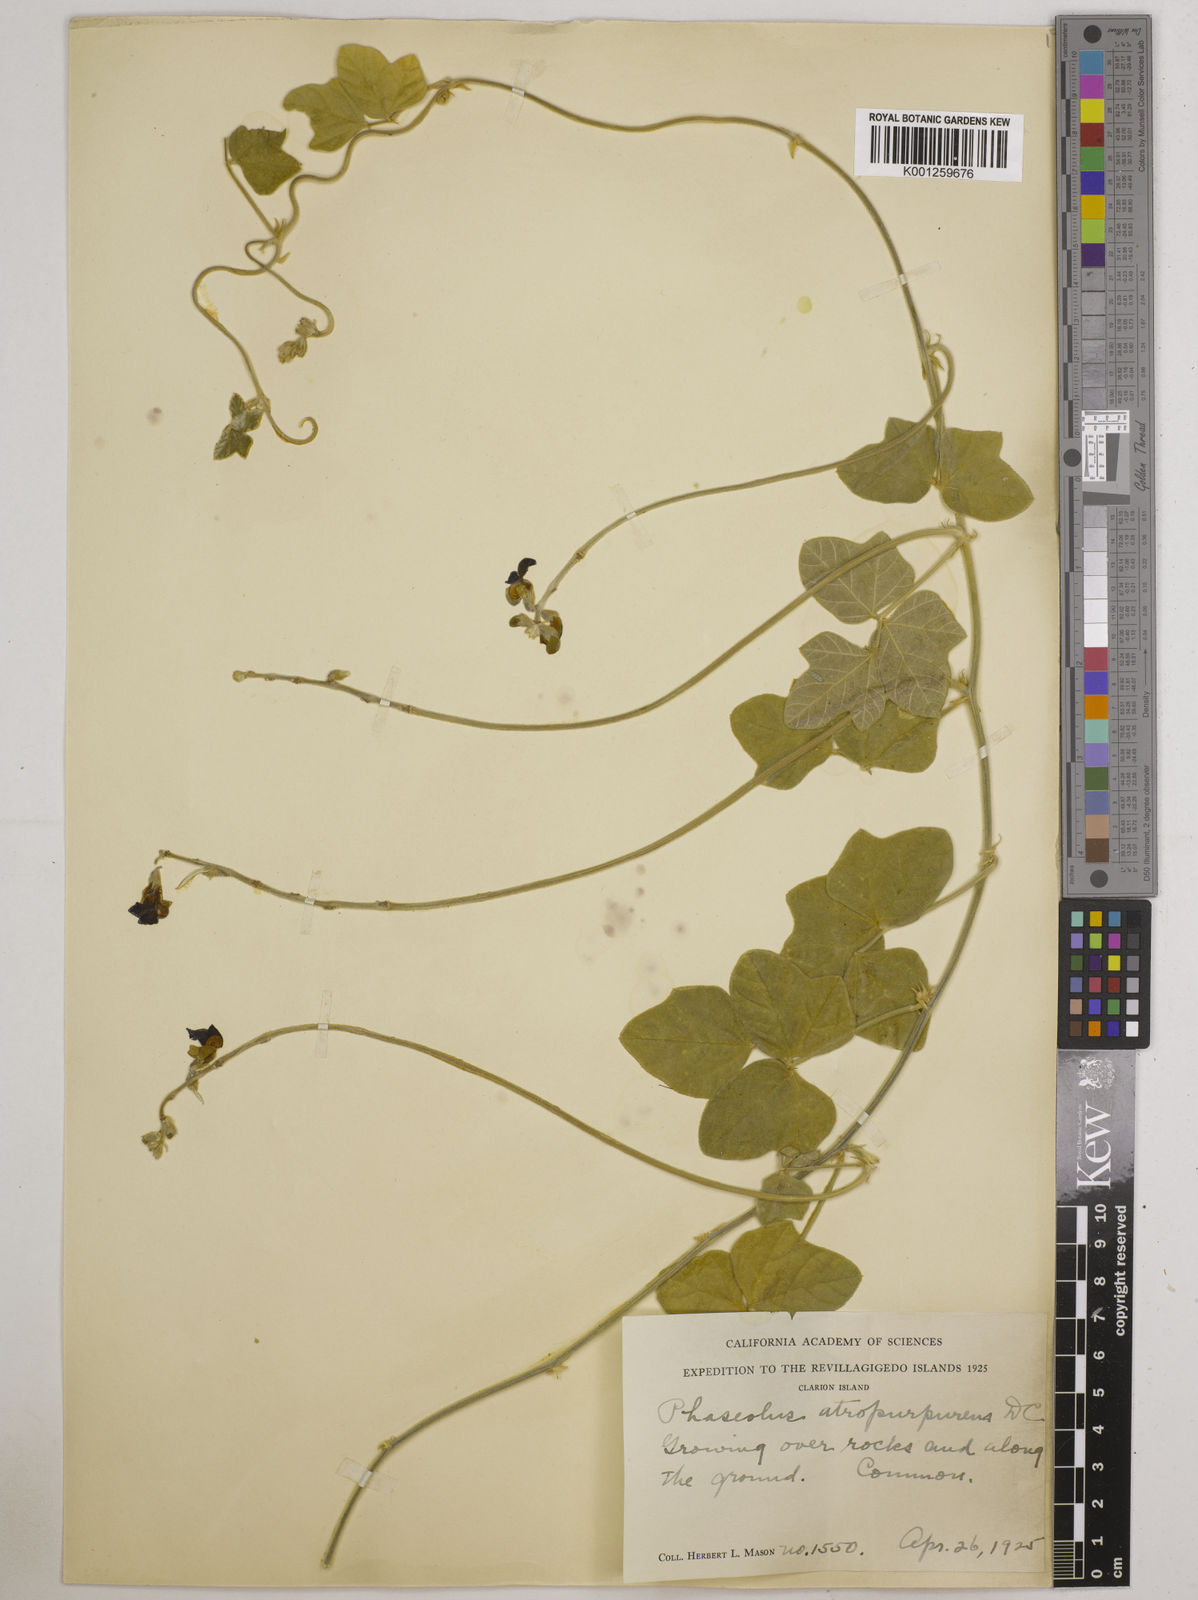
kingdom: Plantae
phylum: Tracheophyta
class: Magnoliopsida
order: Fabales
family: Fabaceae
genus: Macroptilium
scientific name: Macroptilium atropurpureum
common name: Purple bushbean
